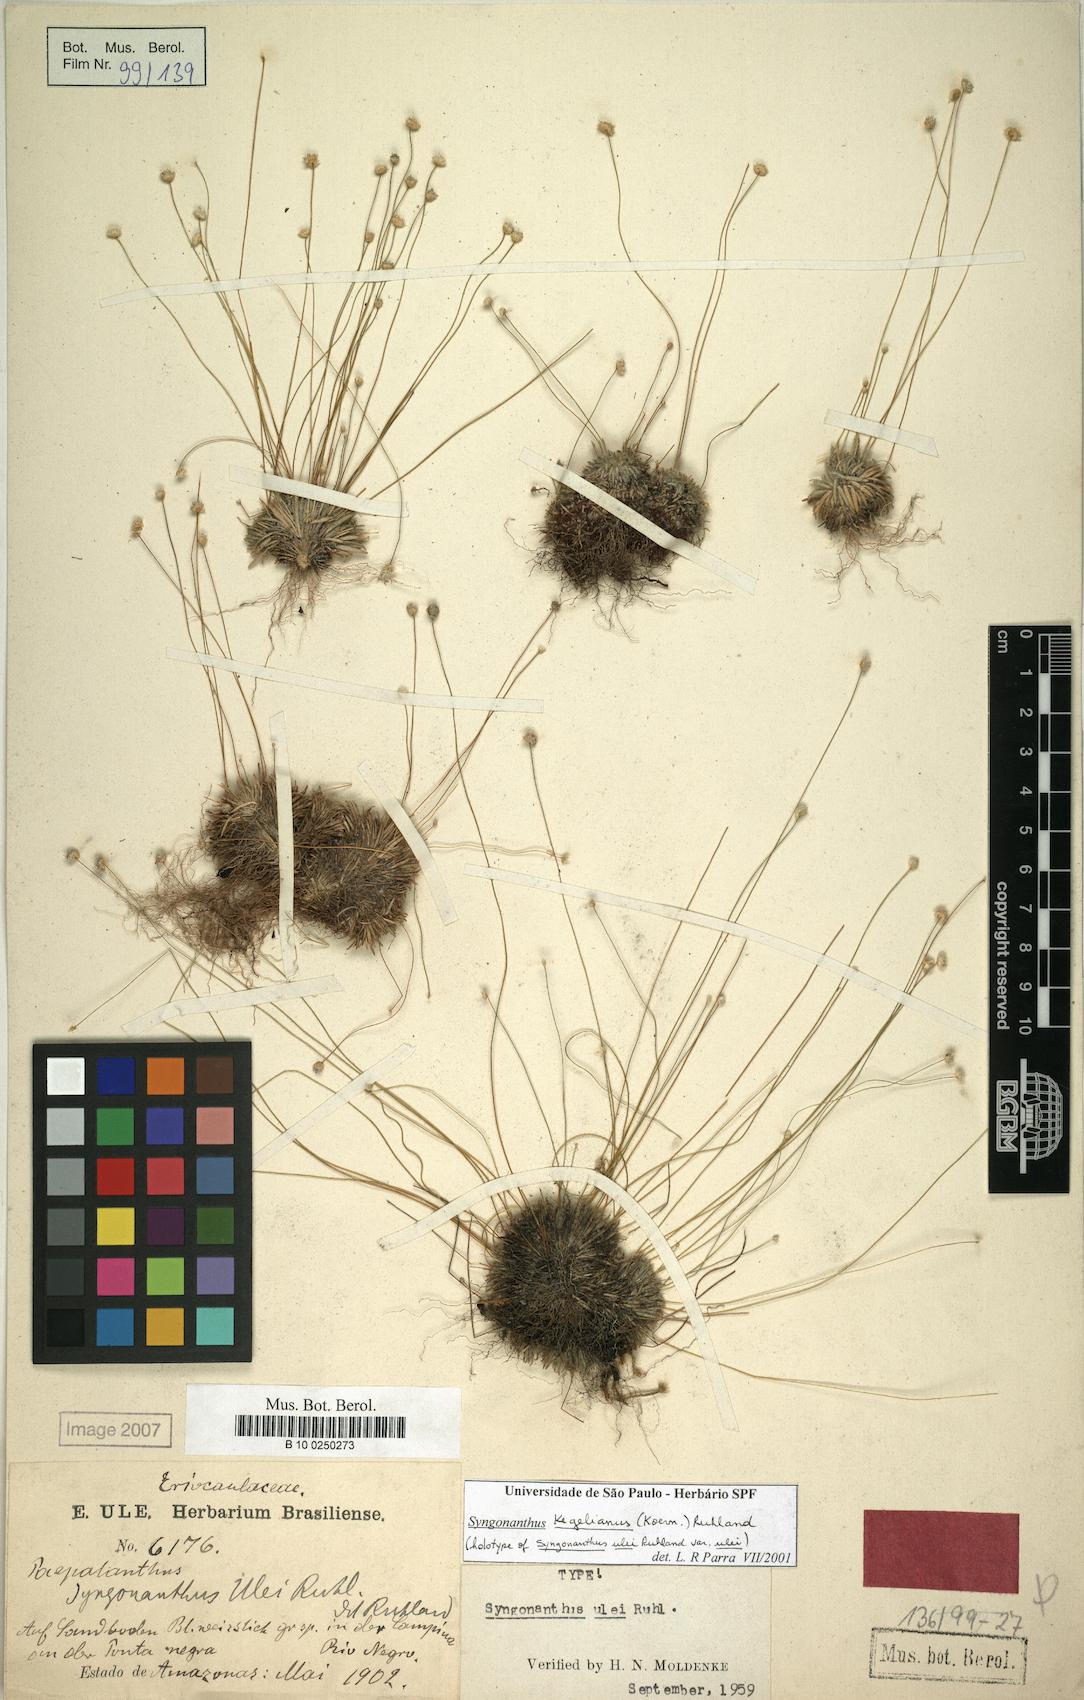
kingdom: Plantae
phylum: Tracheophyta
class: Liliopsida
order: Poales
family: Eriocaulaceae
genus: Comanthera
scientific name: Comanthera kegeliana
